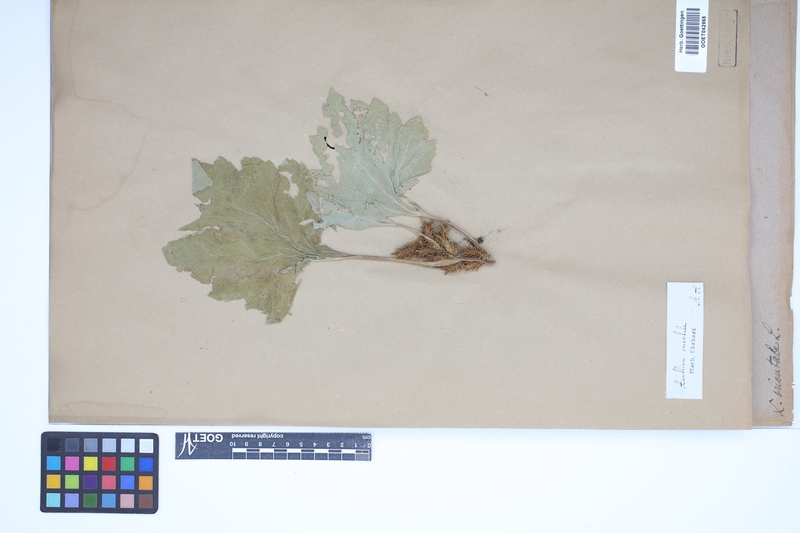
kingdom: Plantae
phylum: Tracheophyta
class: Magnoliopsida
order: Asterales
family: Asteraceae
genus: Xanthium
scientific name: Xanthium orientale
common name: Californian burr
